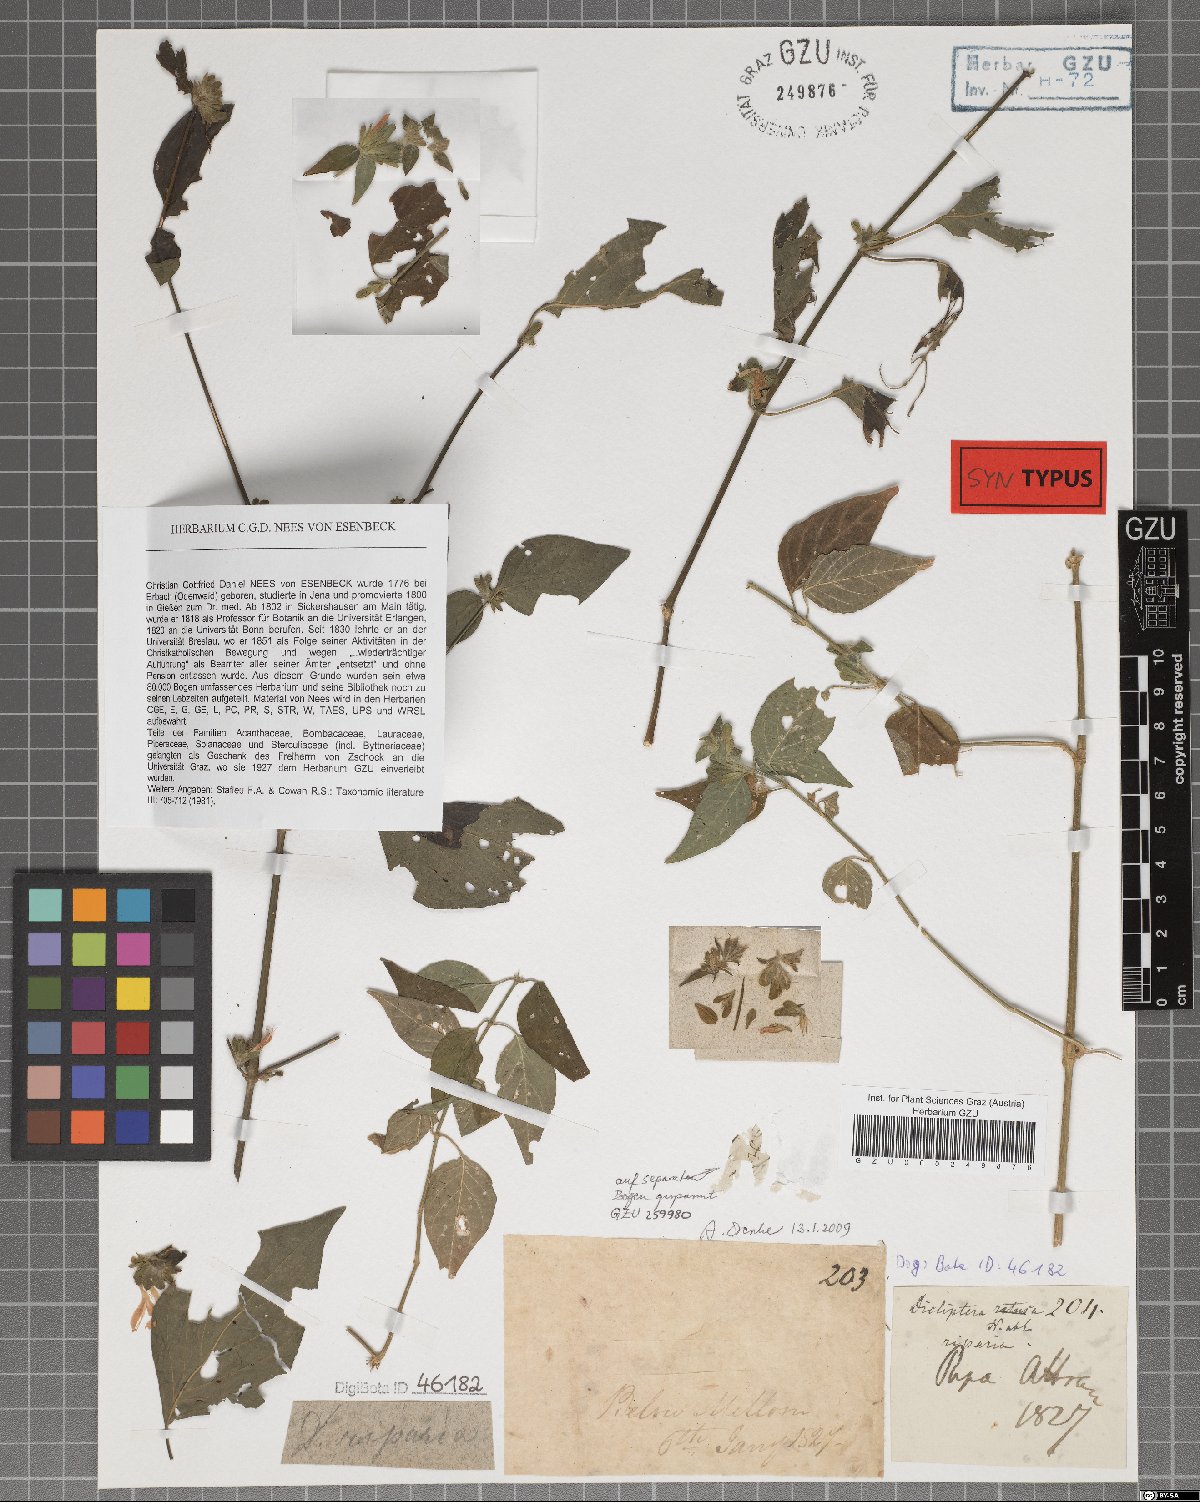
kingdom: Plantae
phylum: Tracheophyta
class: Magnoliopsida
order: Lamiales
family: Acanthaceae
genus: Dicliptera
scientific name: Dicliptera riparia
